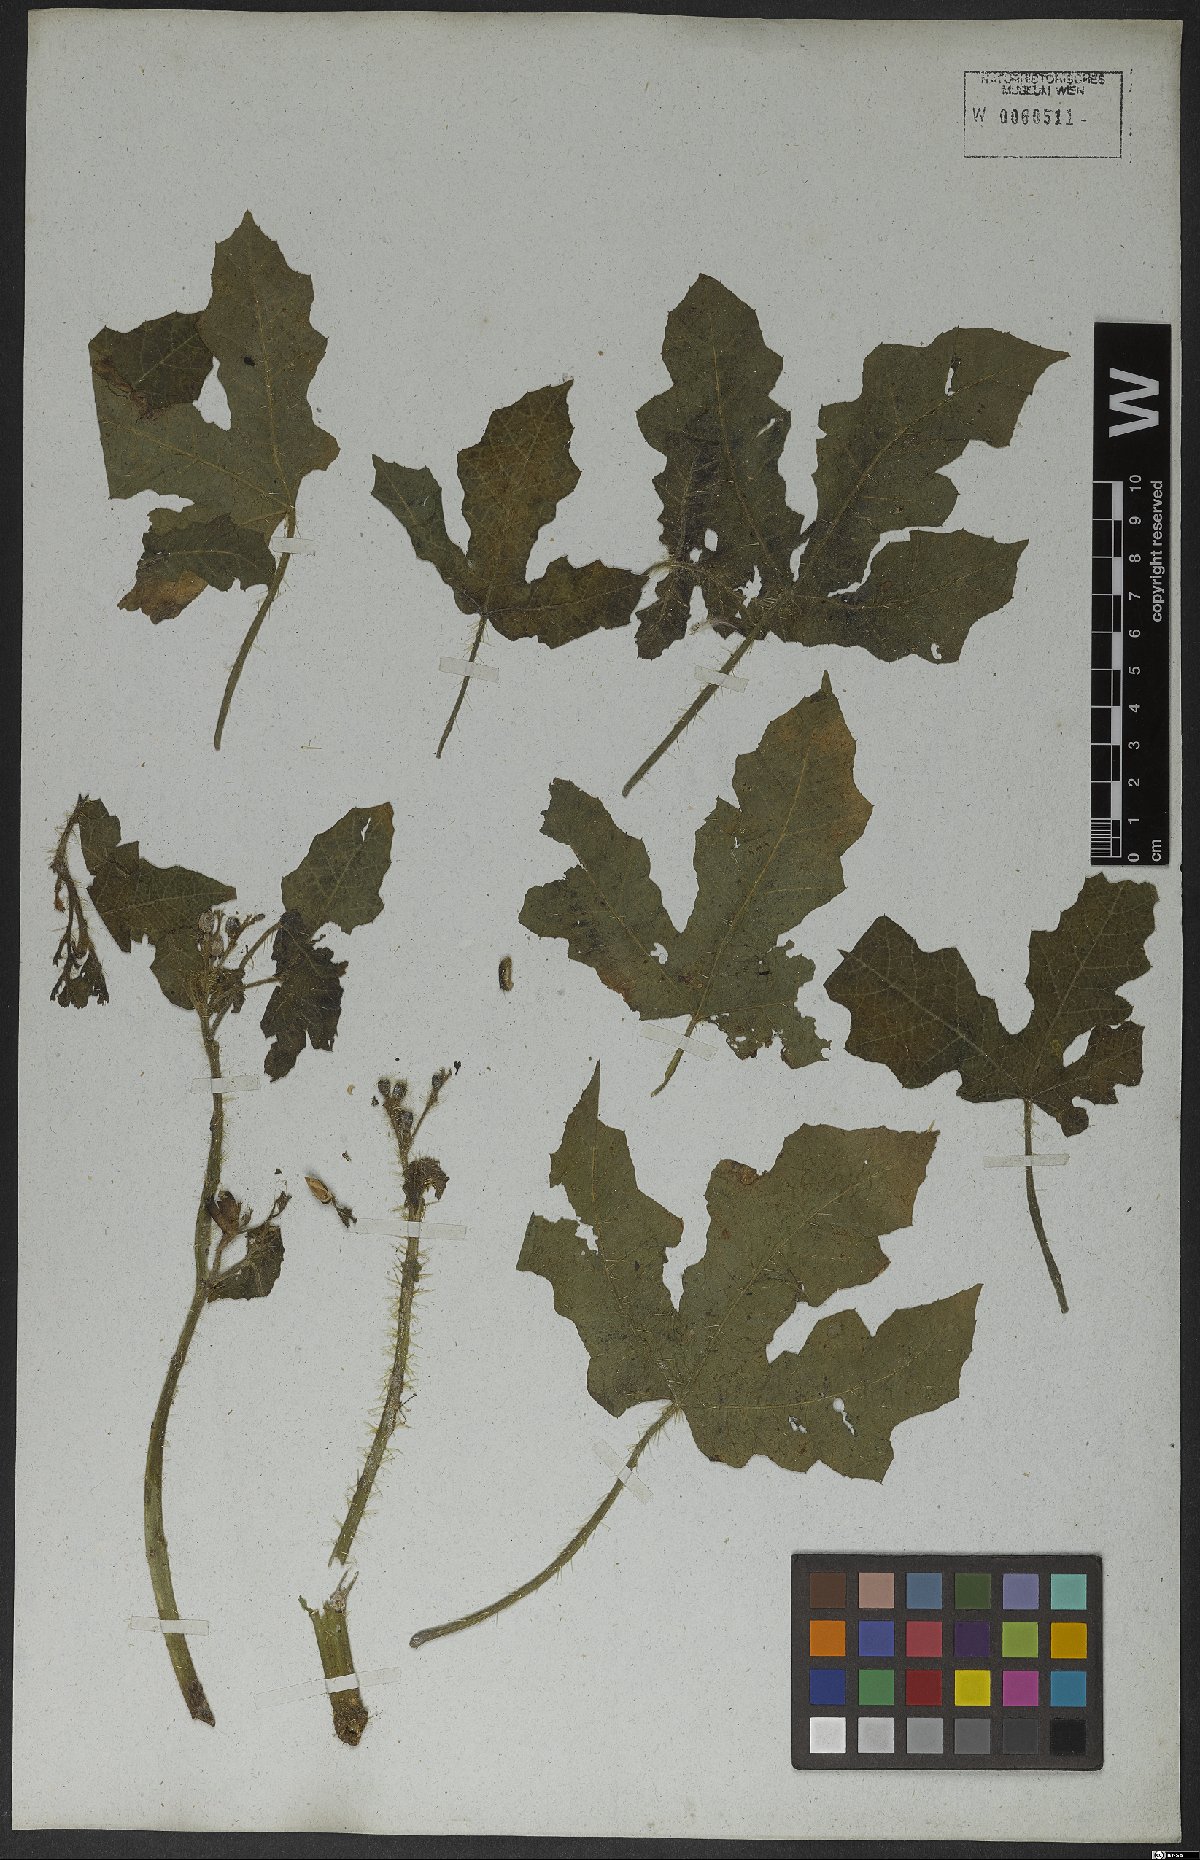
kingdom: Plantae
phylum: Tracheophyta
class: Magnoliopsida
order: Malpighiales
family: Euphorbiaceae
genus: Cnidoscolus
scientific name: Cnidoscolus urens
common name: Bull-nettle
